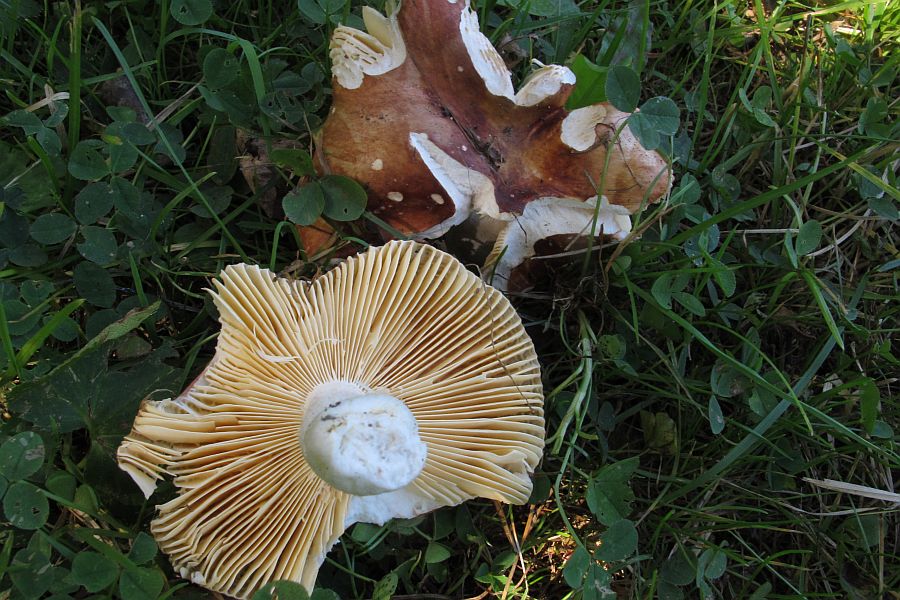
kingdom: Fungi
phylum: Basidiomycota
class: Agaricomycetes
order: Russulales
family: Russulaceae
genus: Russula
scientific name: Russula
